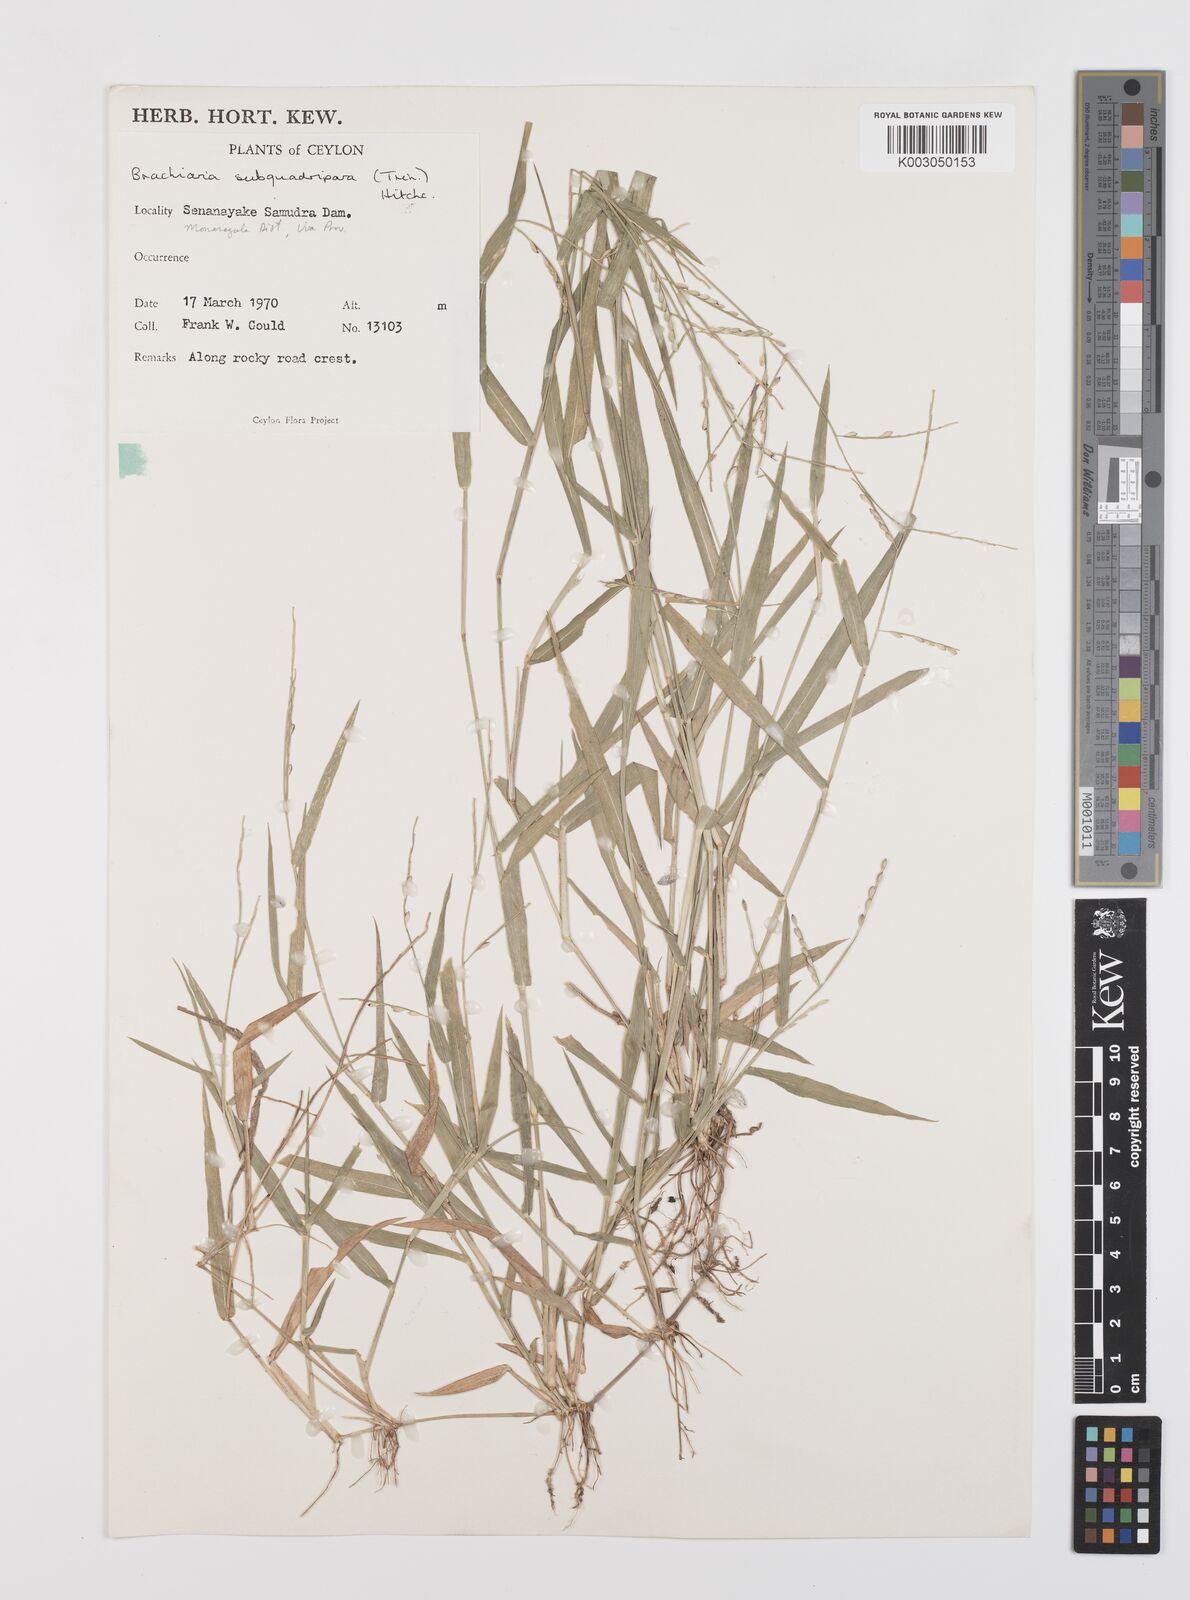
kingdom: Plantae
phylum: Tracheophyta
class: Liliopsida
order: Poales
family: Poaceae
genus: Urochloa
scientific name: Urochloa subquadripara
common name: Armgrass millet
